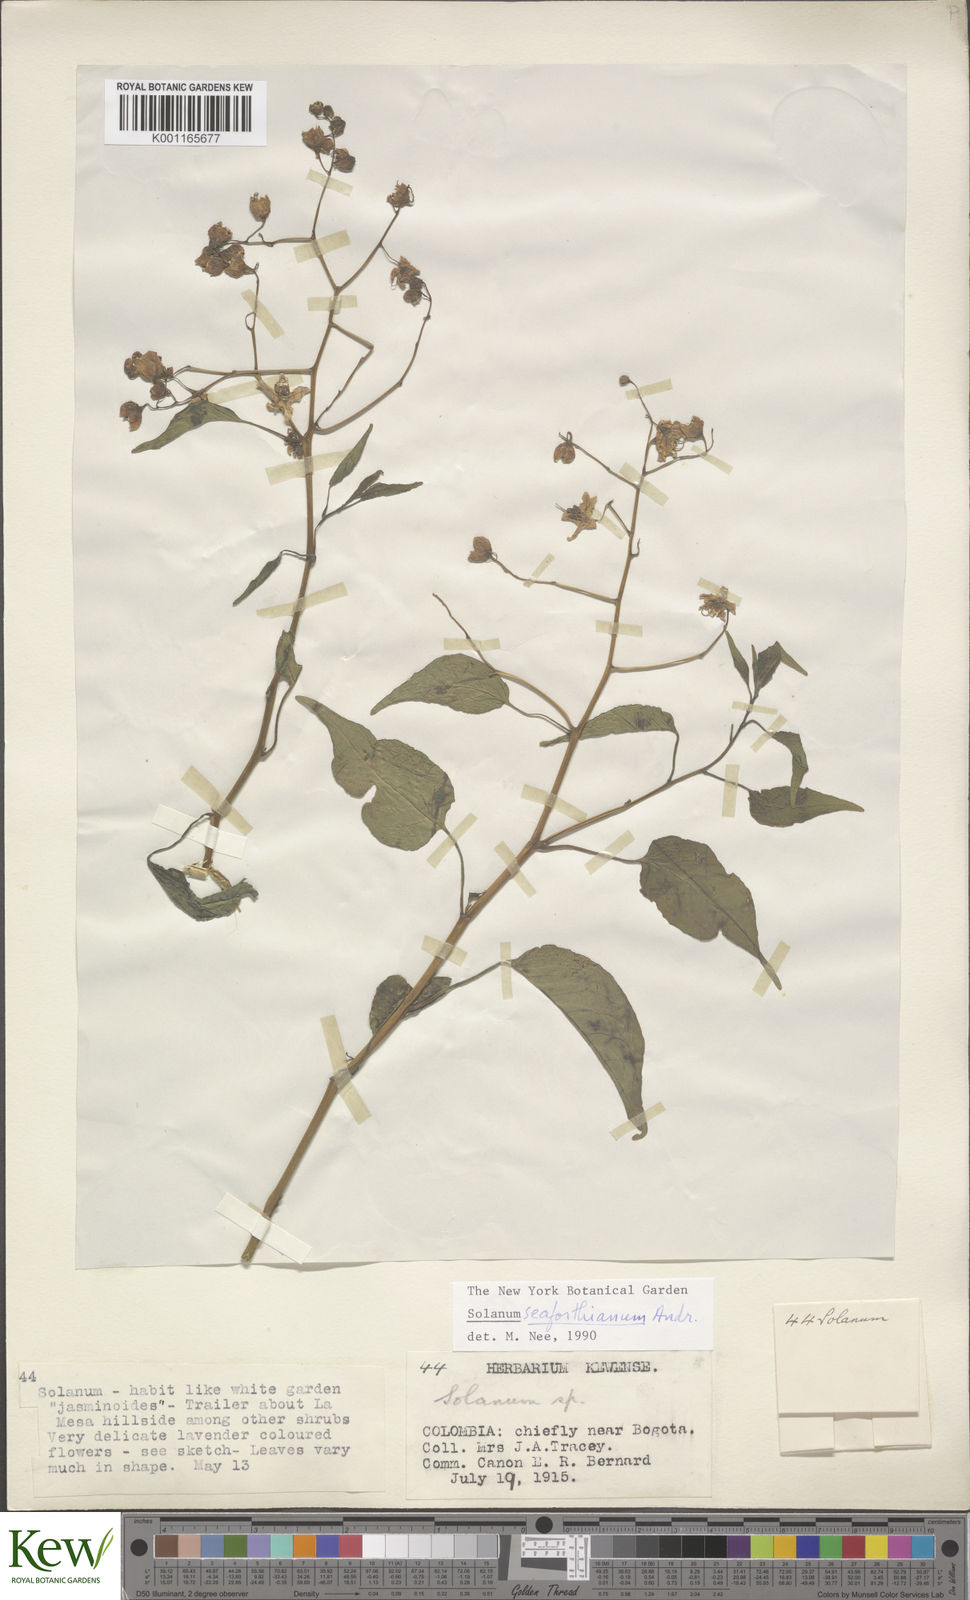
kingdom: Plantae
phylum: Tracheophyta
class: Magnoliopsida
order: Solanales
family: Solanaceae
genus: Solanum
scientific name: Solanum seaforthianum
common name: Brazilian nightshade
